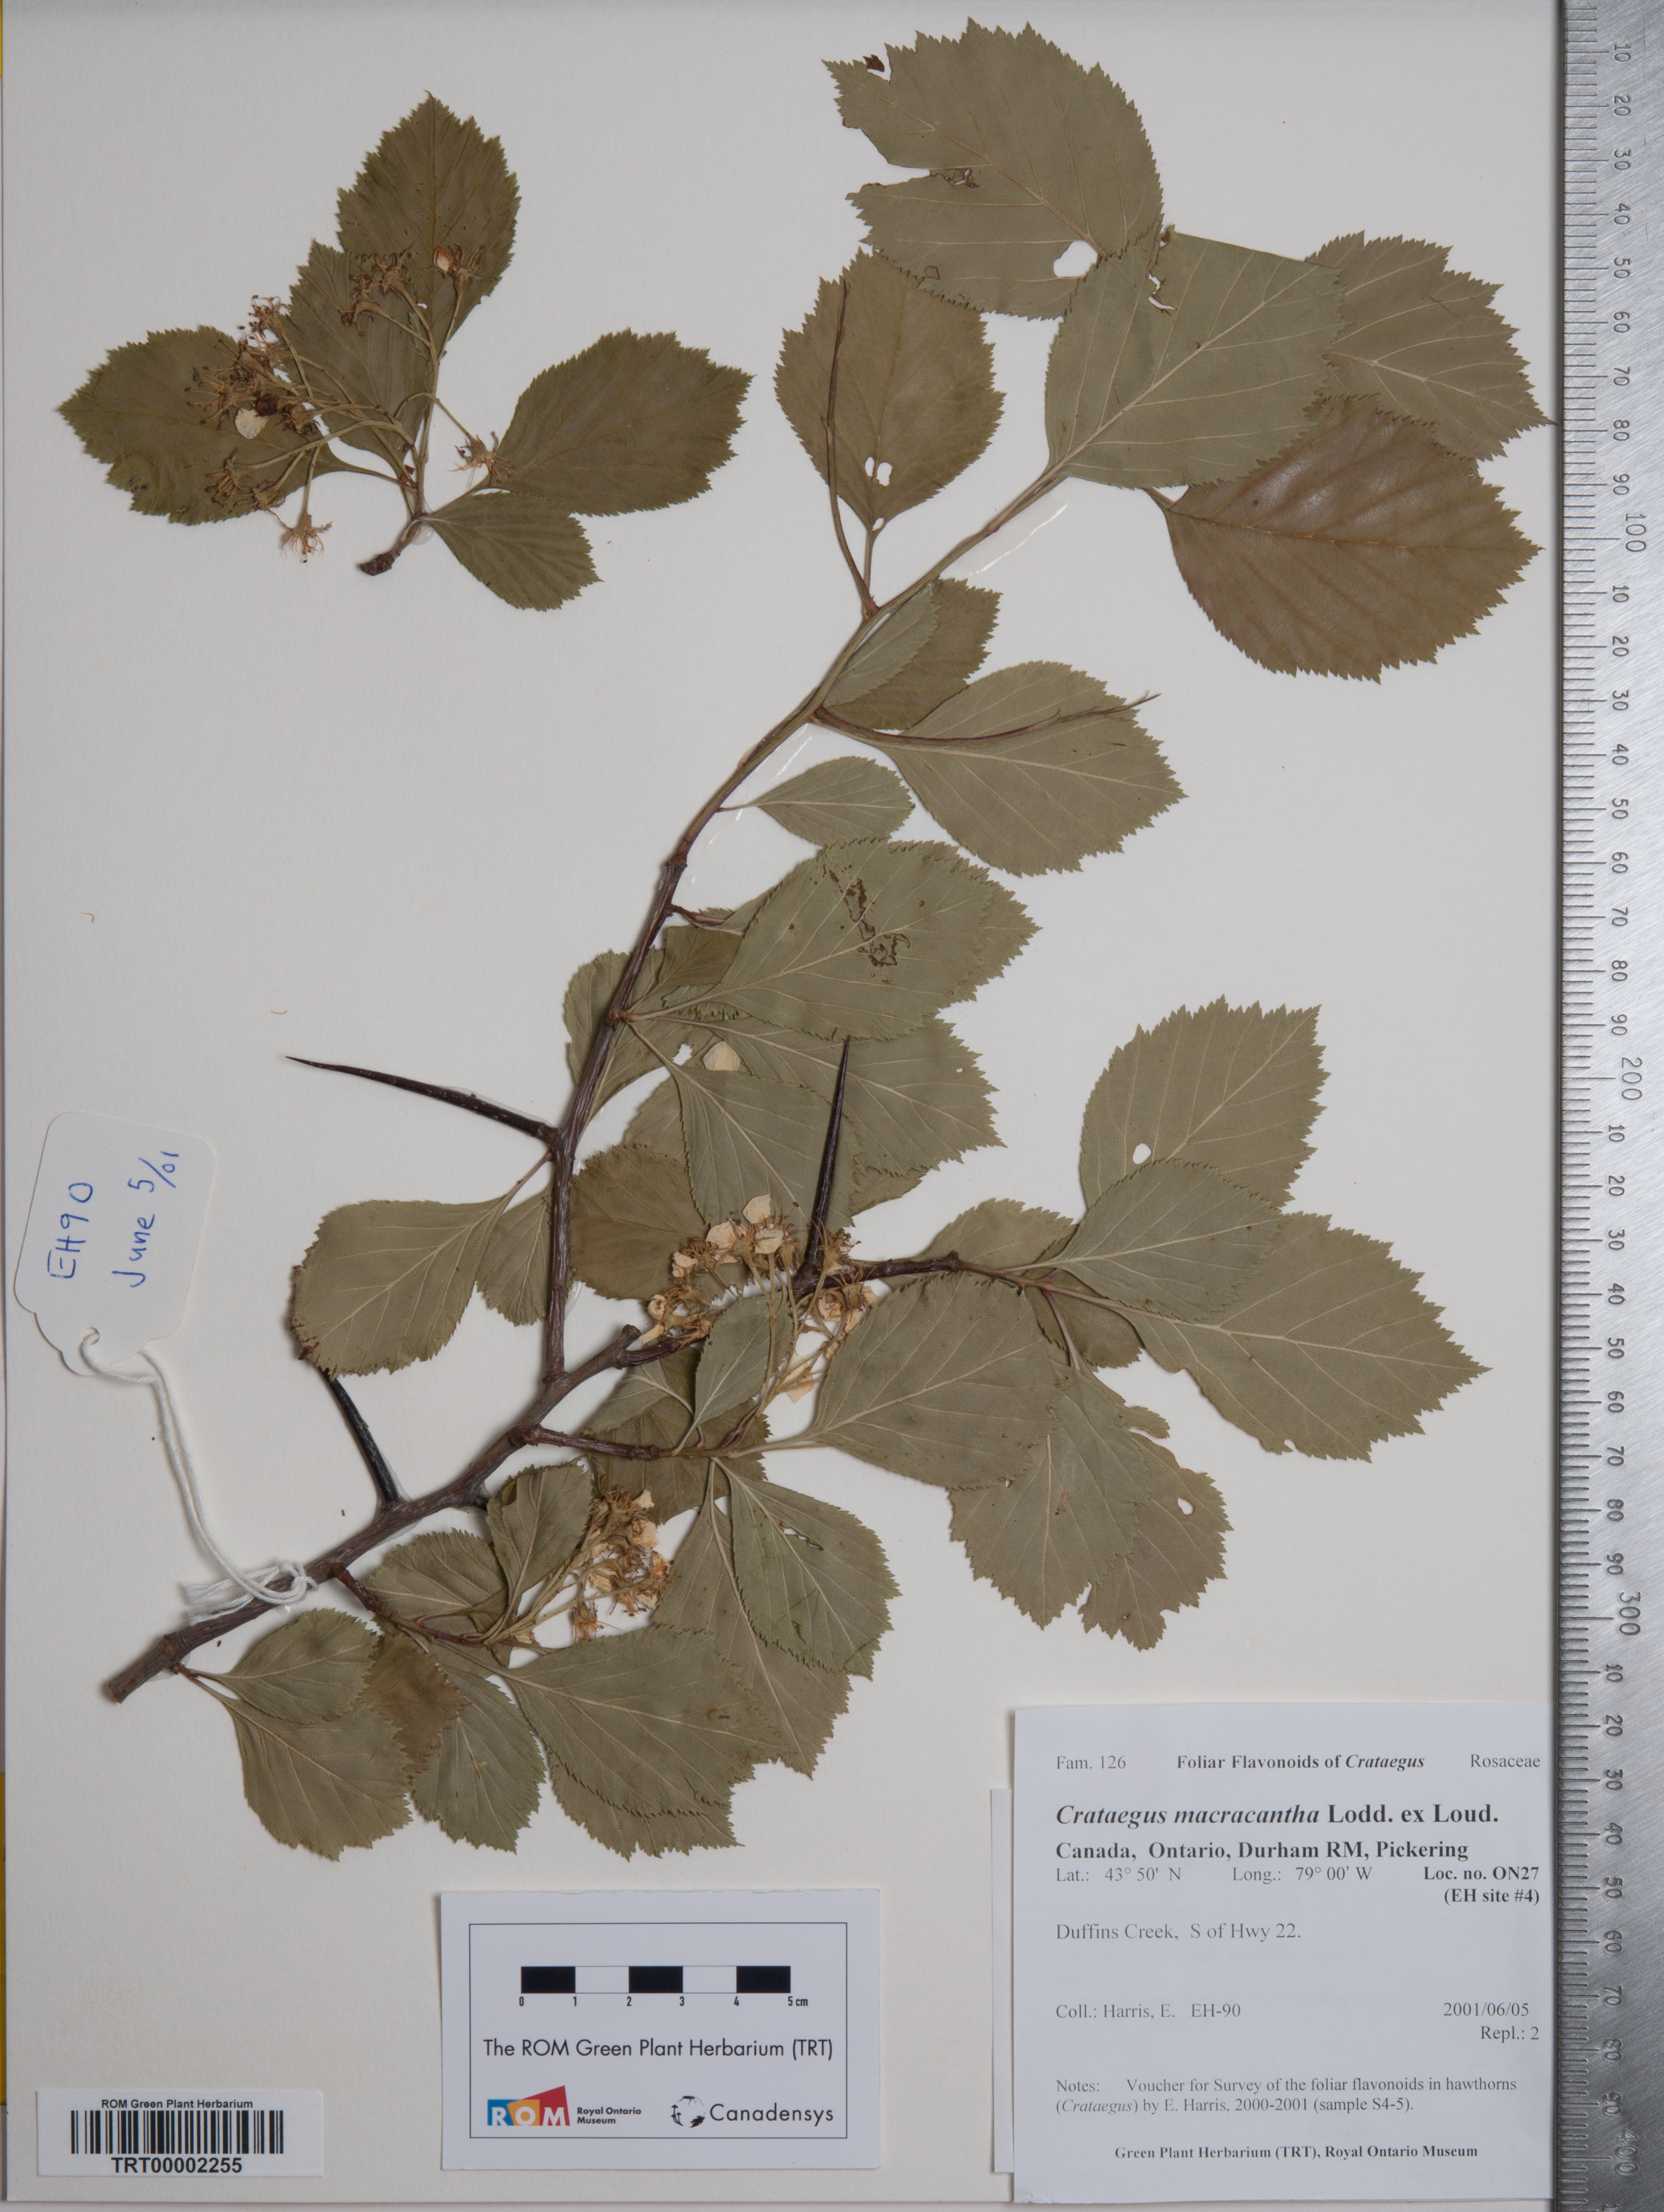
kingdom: Plantae
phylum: Tracheophyta
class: Magnoliopsida
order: Rosales
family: Rosaceae
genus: Crataegus
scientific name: Crataegus macracantha
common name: Large-thorn hawthorn
